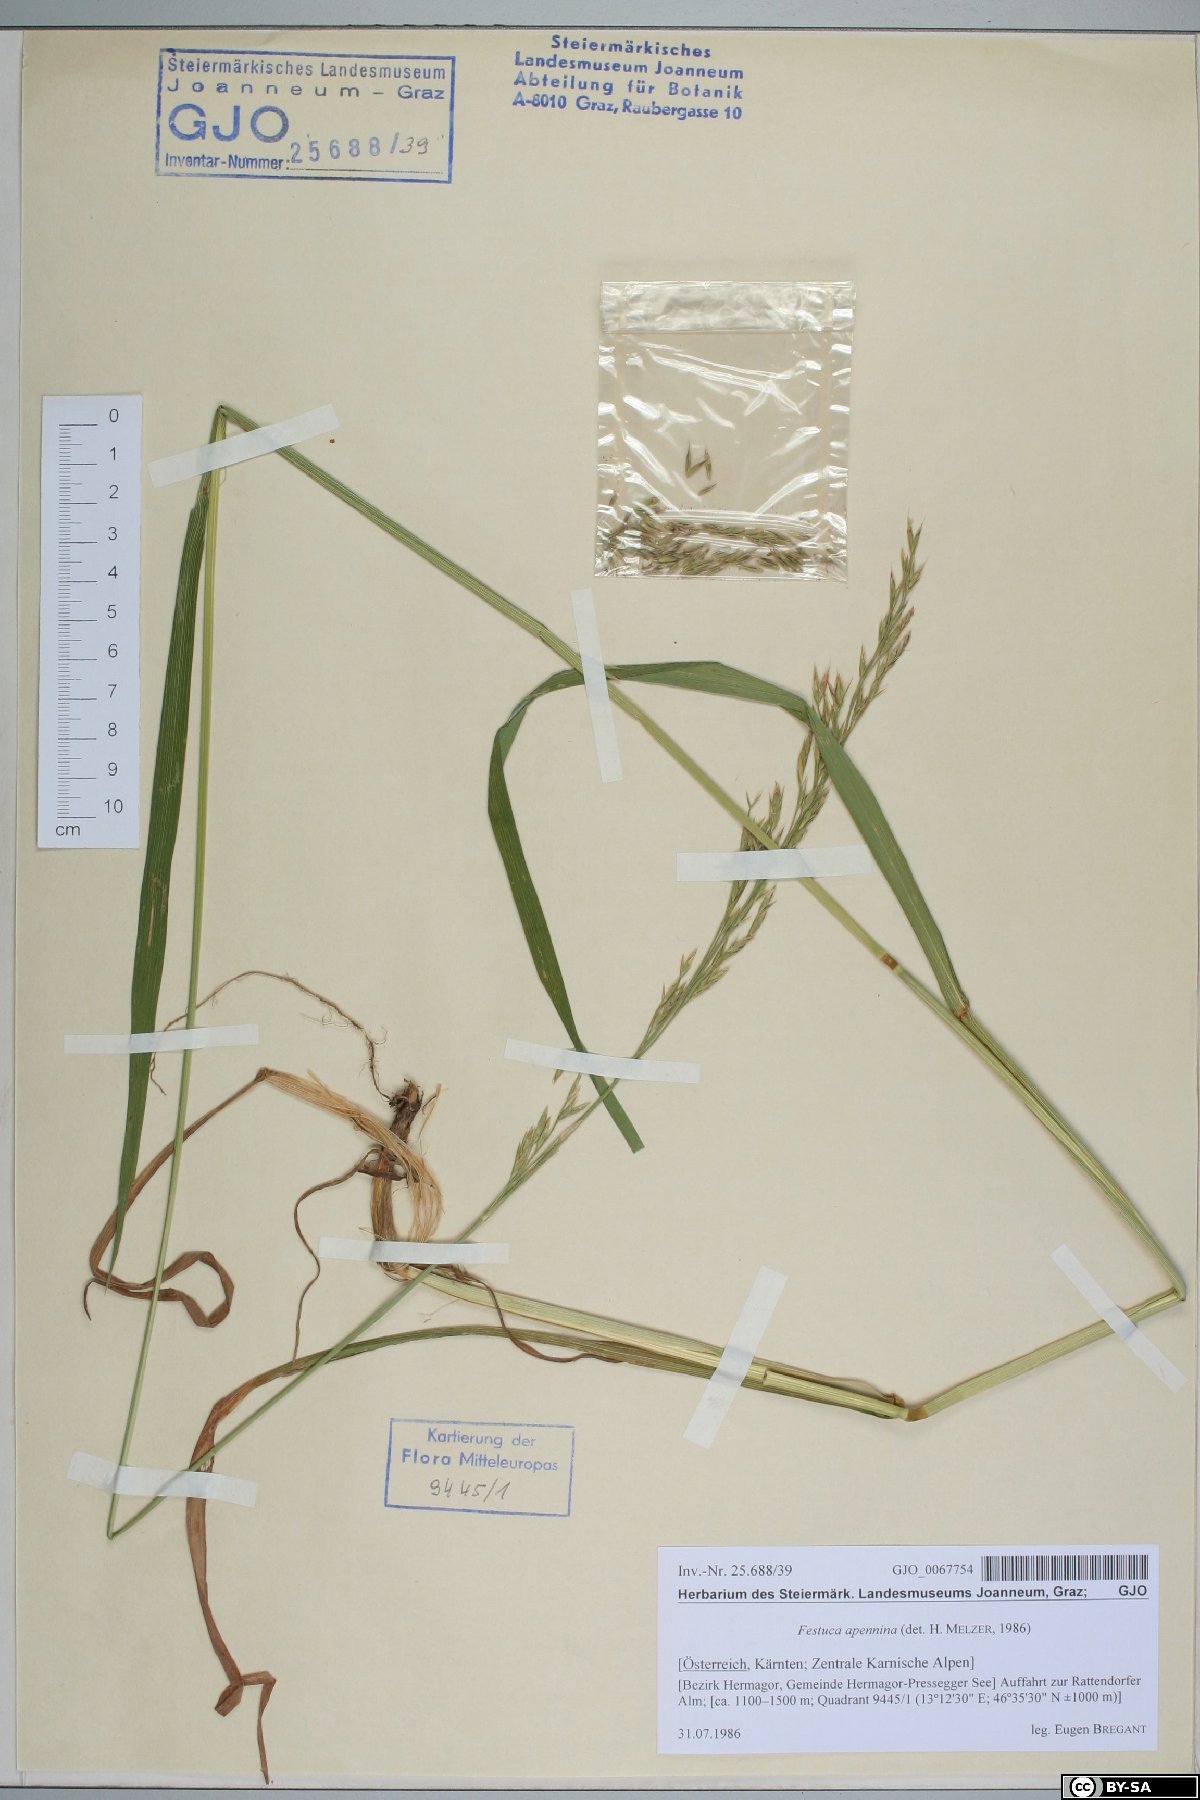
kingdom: Plantae
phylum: Tracheophyta
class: Liliopsida
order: Poales
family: Poaceae
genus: Lolium
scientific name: Lolium apenninum
